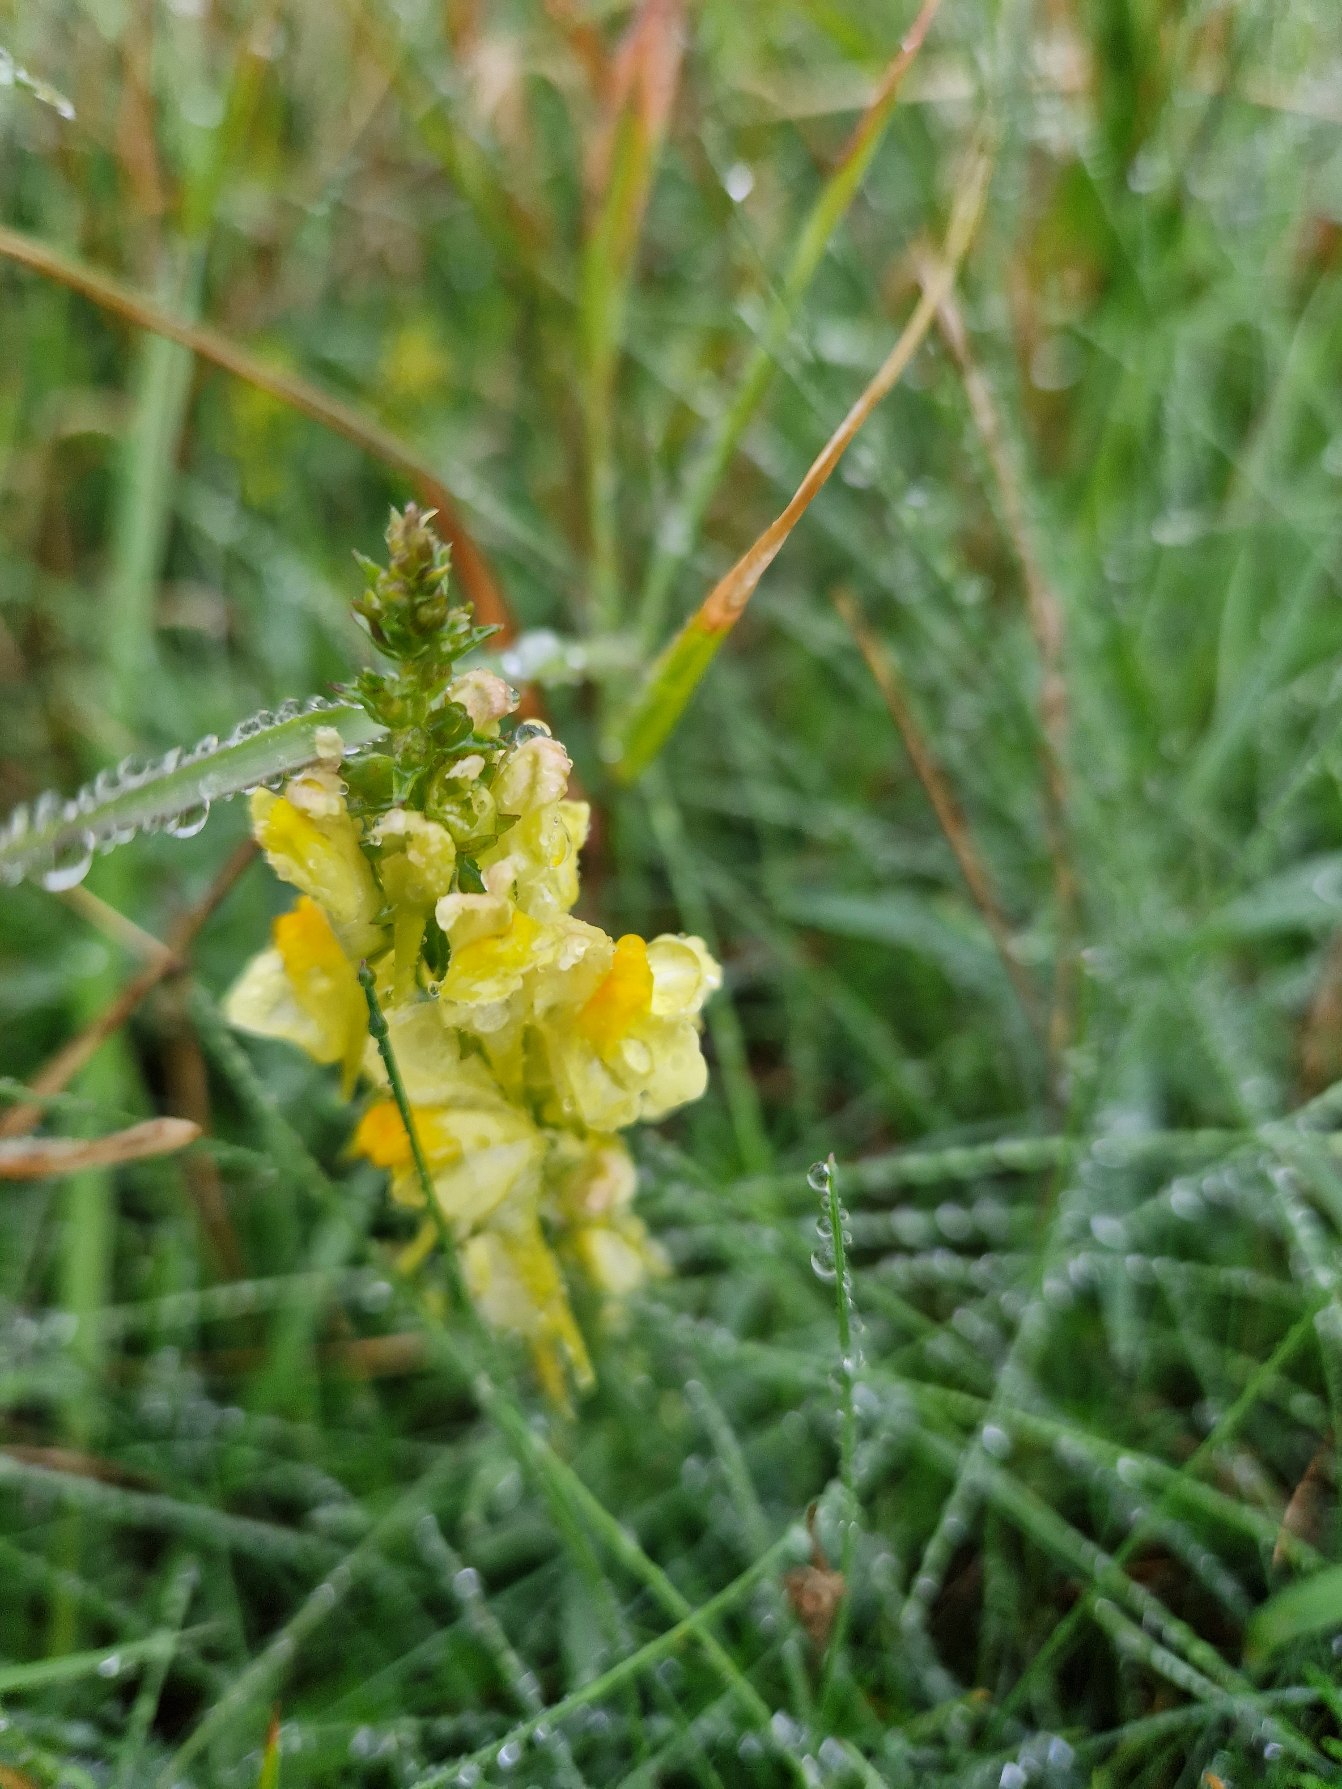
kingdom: Plantae
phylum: Tracheophyta
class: Magnoliopsida
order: Lamiales
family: Plantaginaceae
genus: Linaria
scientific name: Linaria vulgaris
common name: Almindelig torskemund
